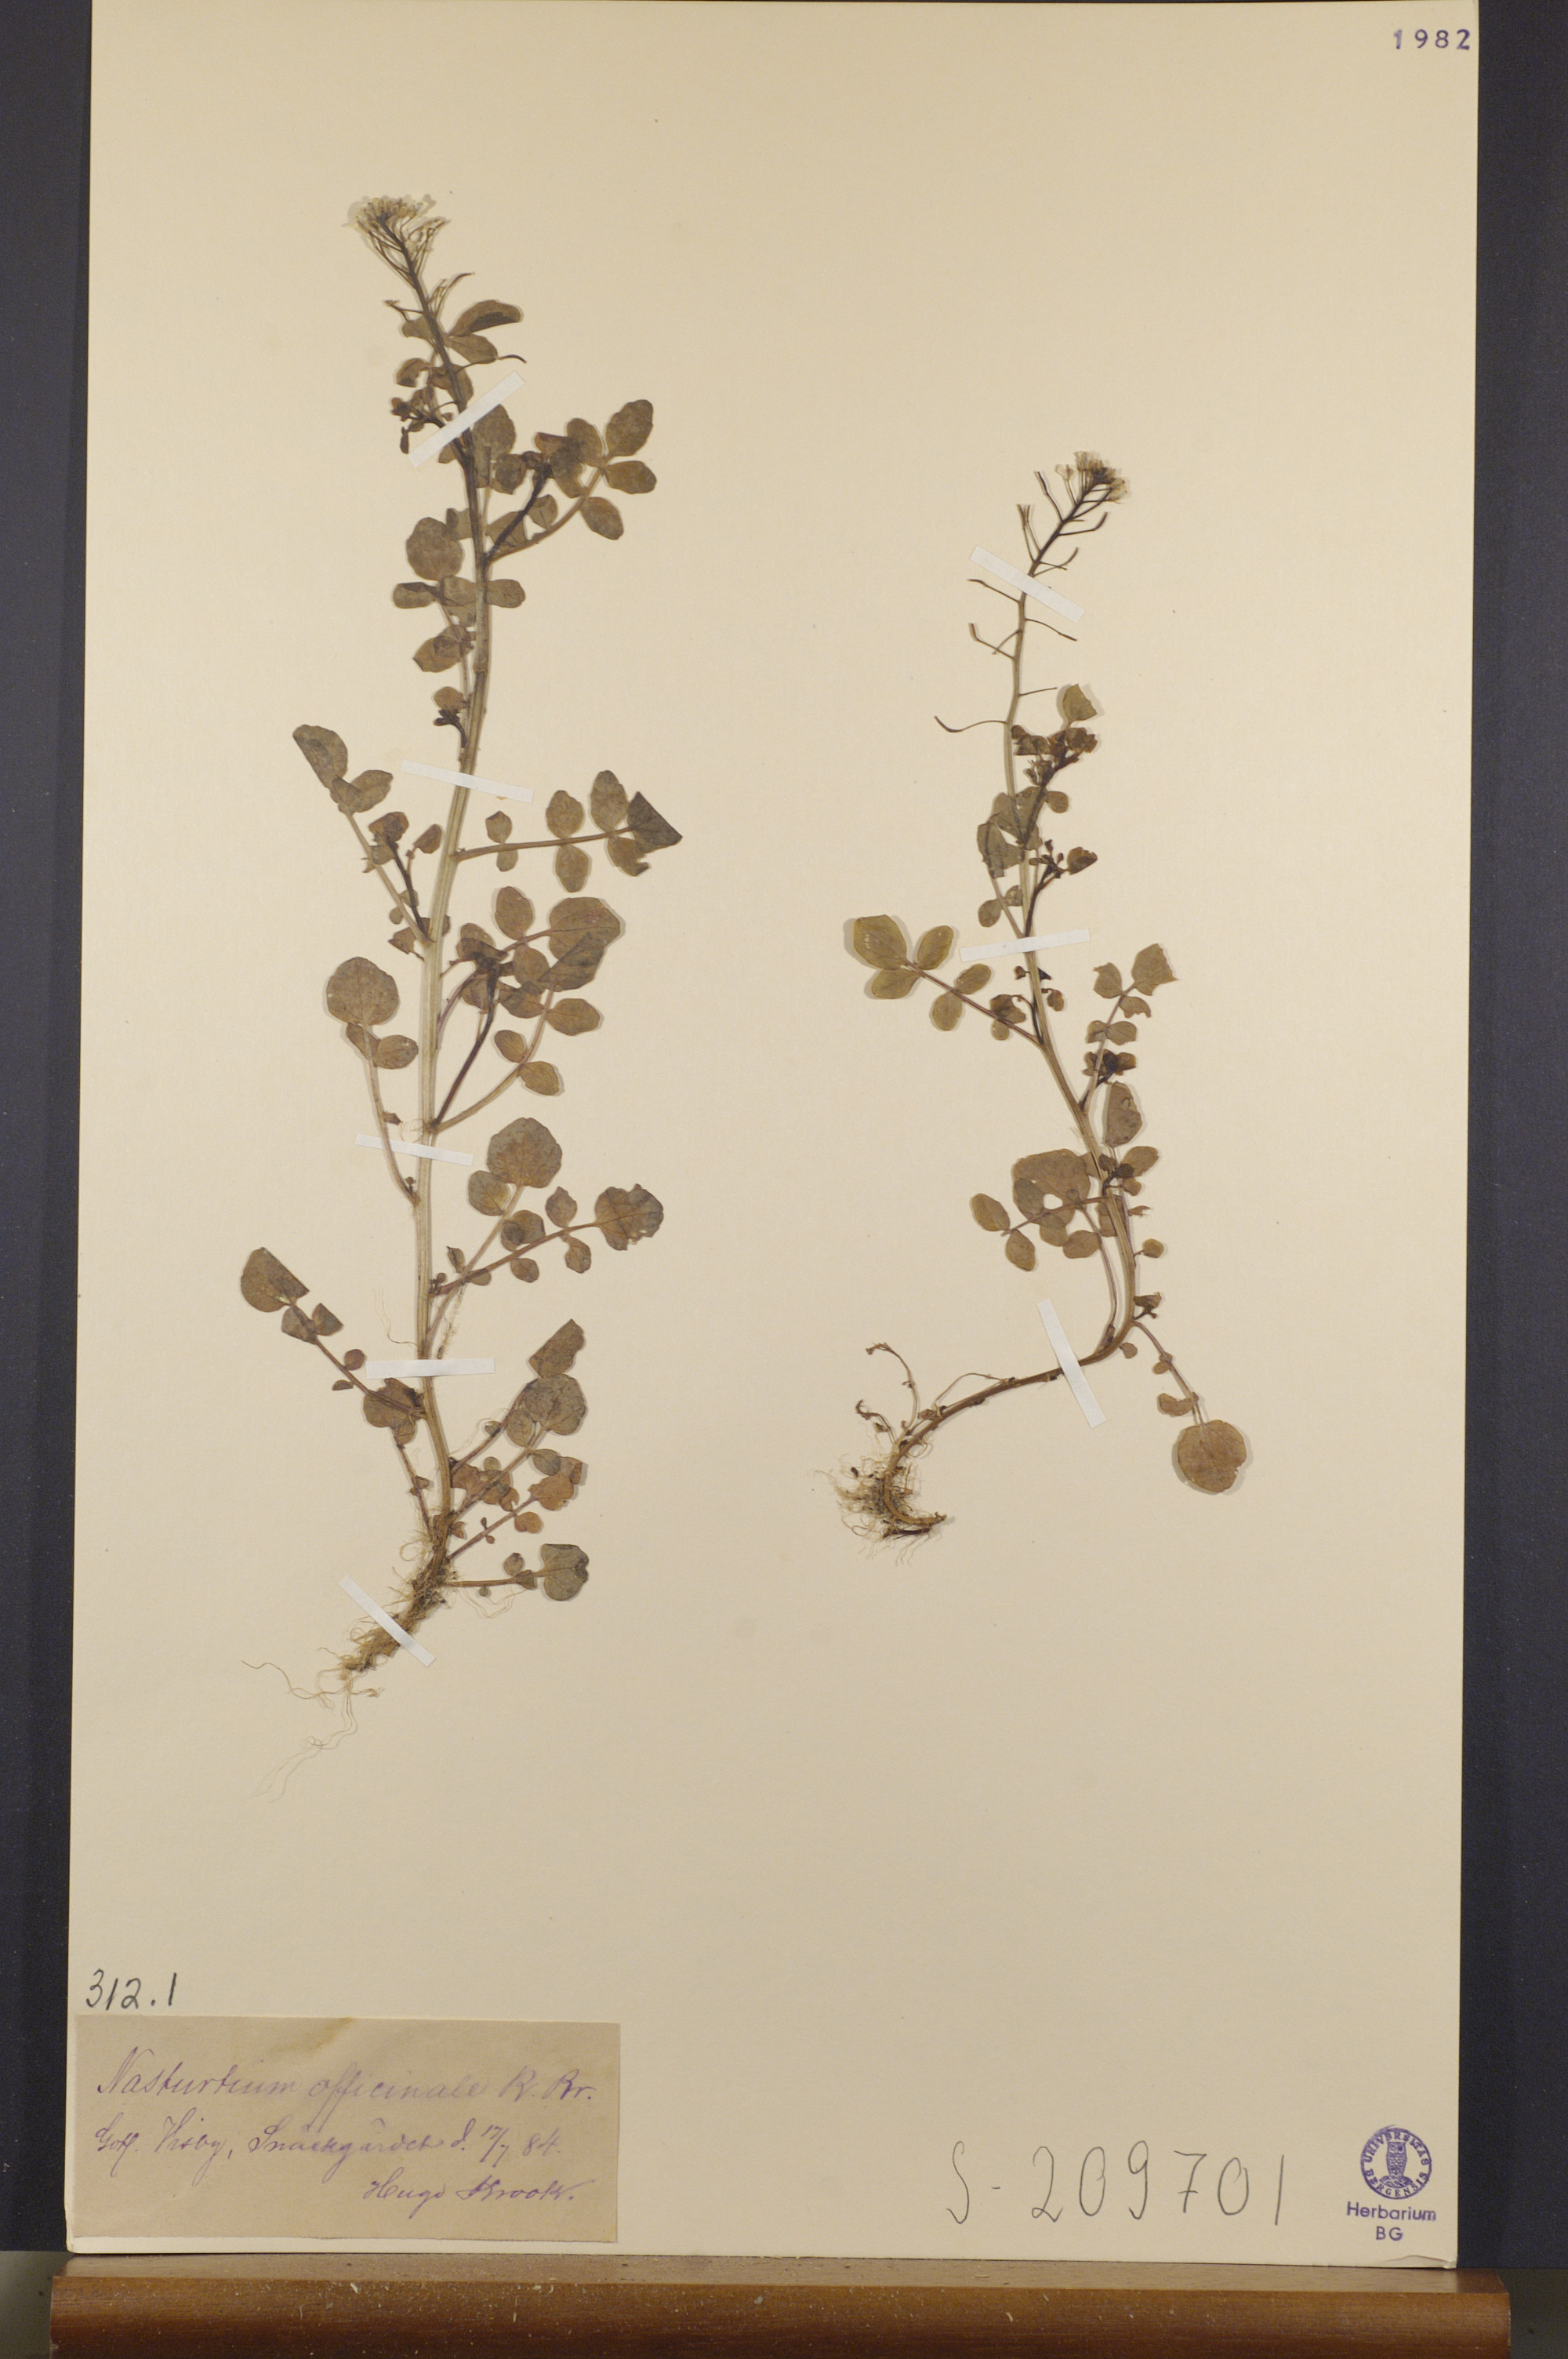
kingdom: Plantae
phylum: Tracheophyta
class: Magnoliopsida
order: Brassicales
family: Brassicaceae
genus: Nasturtium
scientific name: Nasturtium officinale
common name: Watercress
